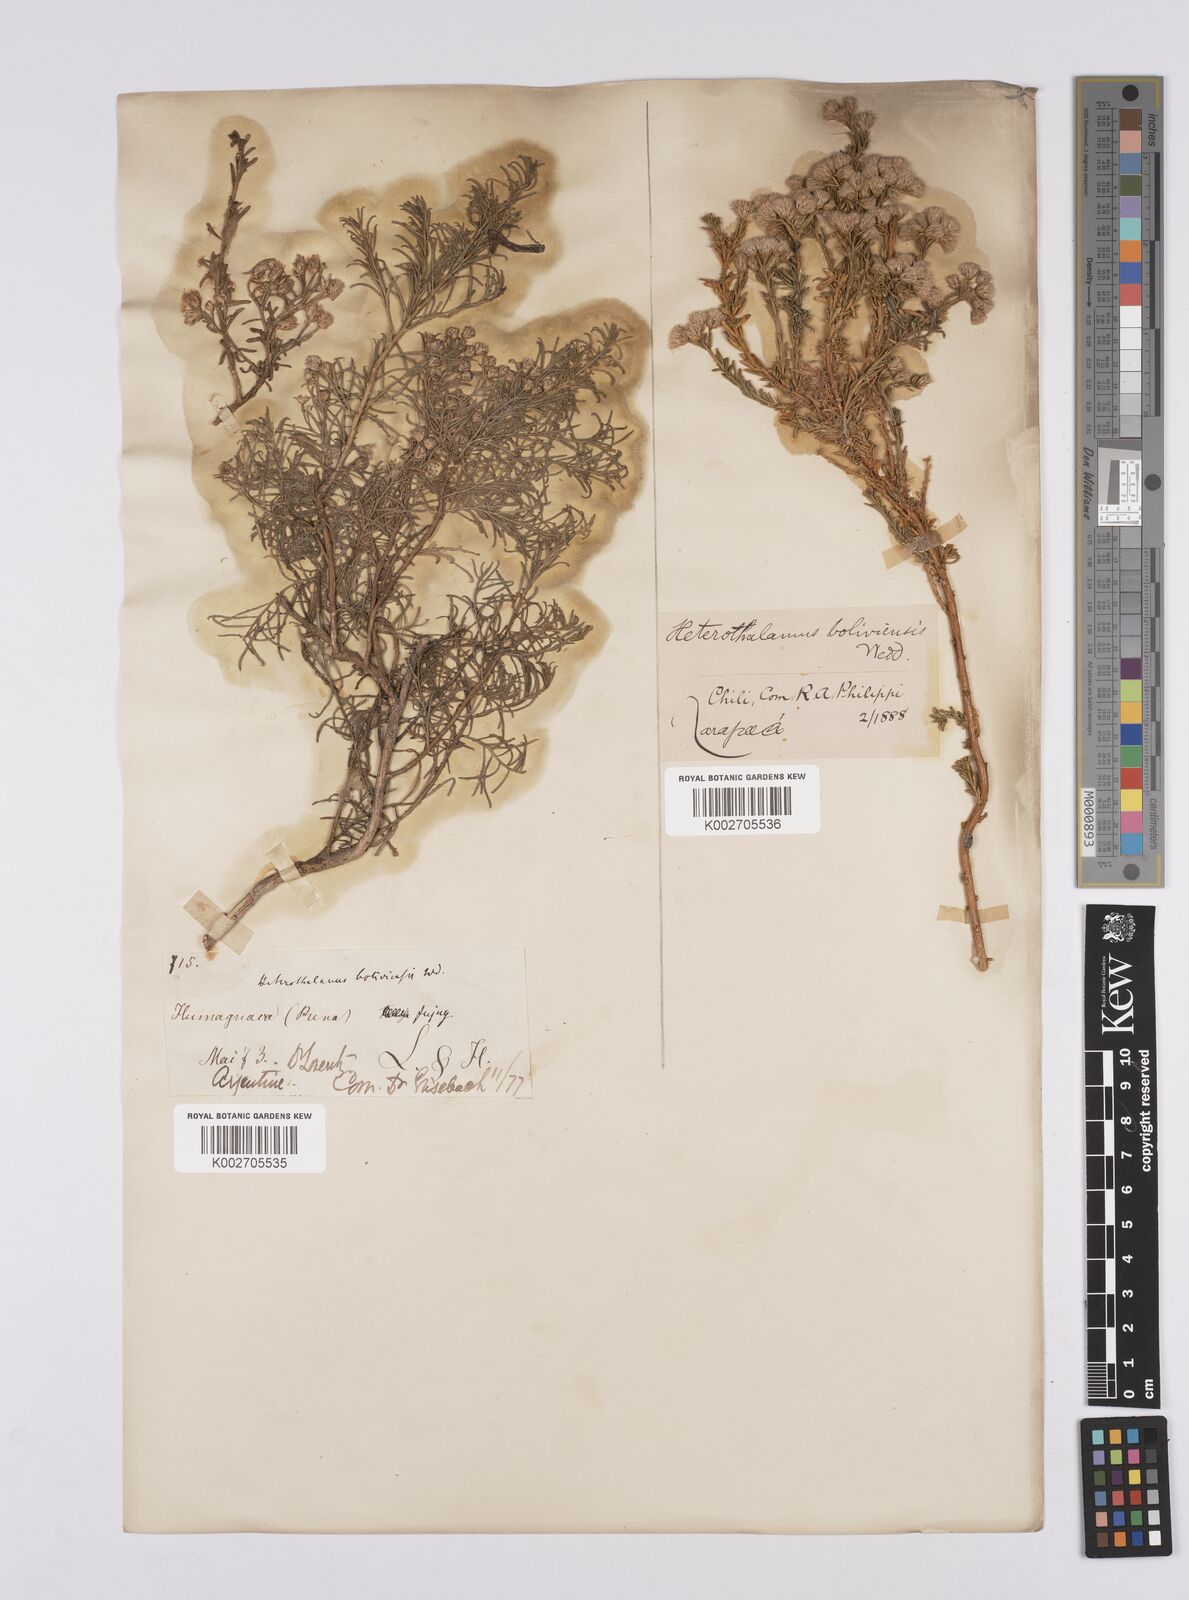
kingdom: Plantae
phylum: Tracheophyta
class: Magnoliopsida
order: Asterales
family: Asteraceae
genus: Baccharis
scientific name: Baccharis bolivensis
